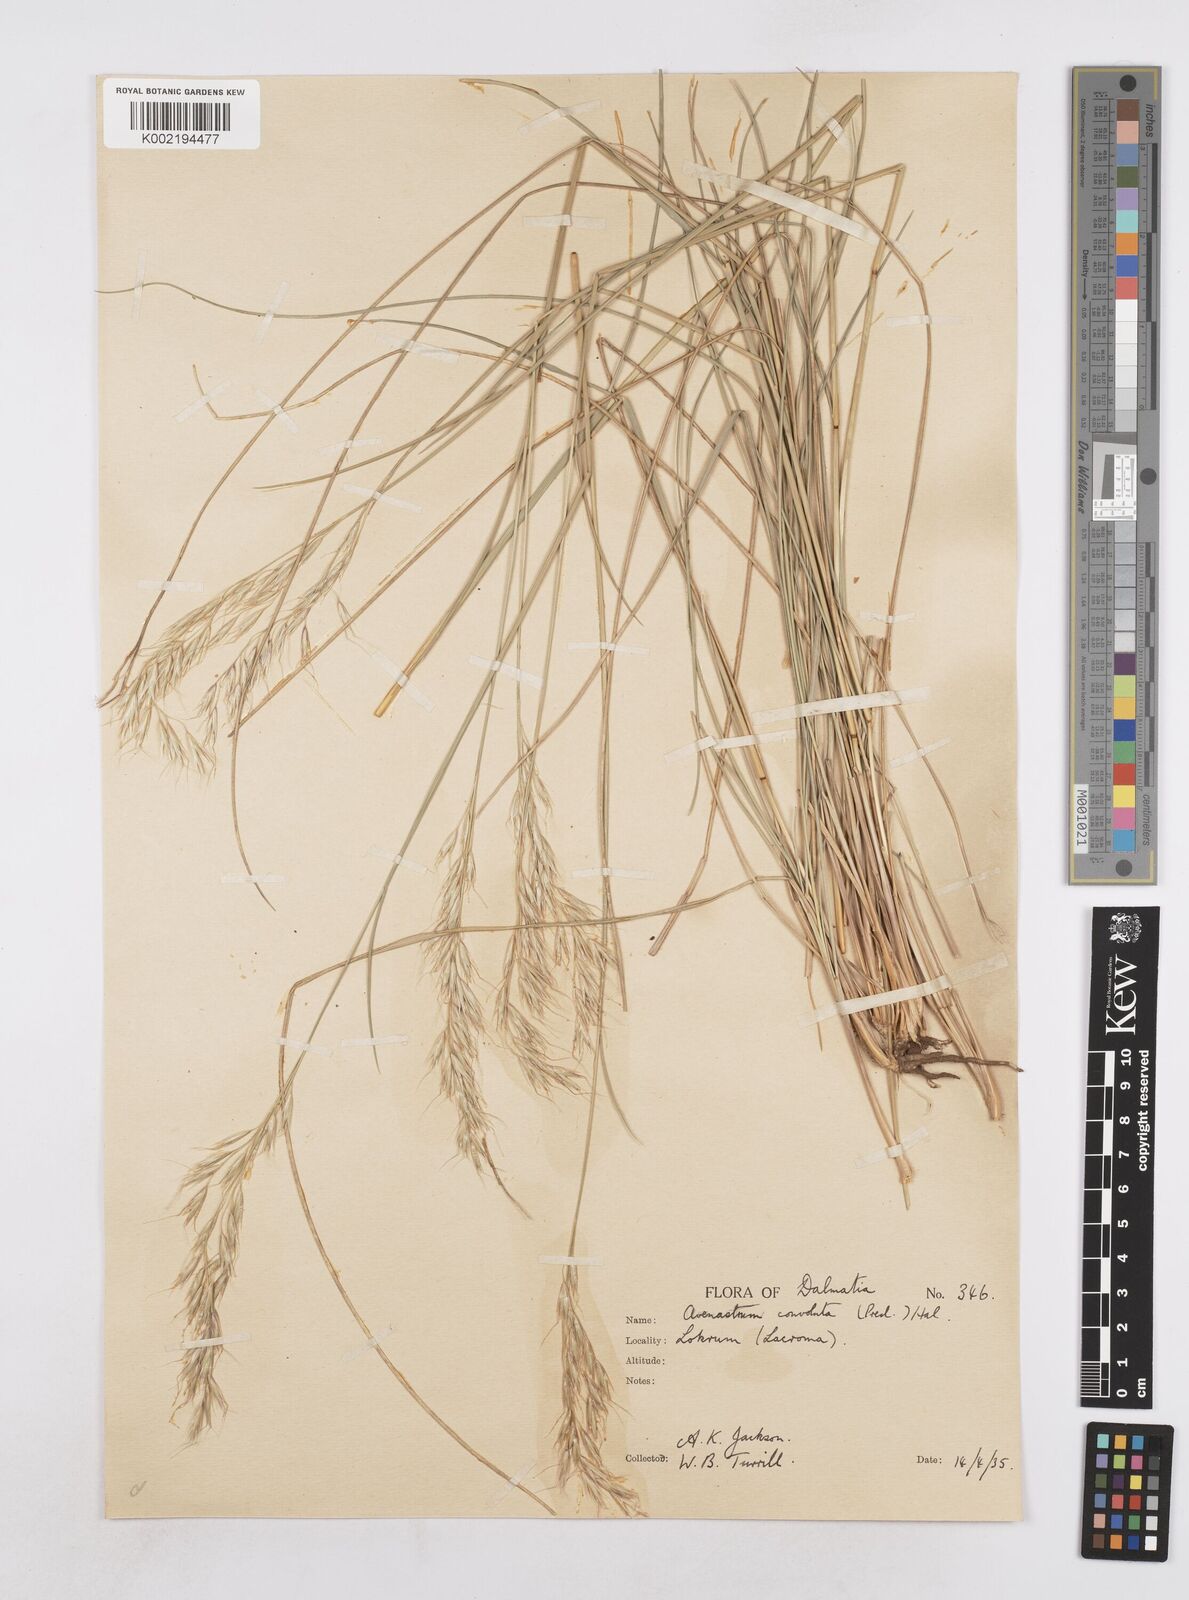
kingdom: Plantae
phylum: Tracheophyta
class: Liliopsida
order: Poales
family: Poaceae
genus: Helictotrichon
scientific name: Helictotrichon convolutum
